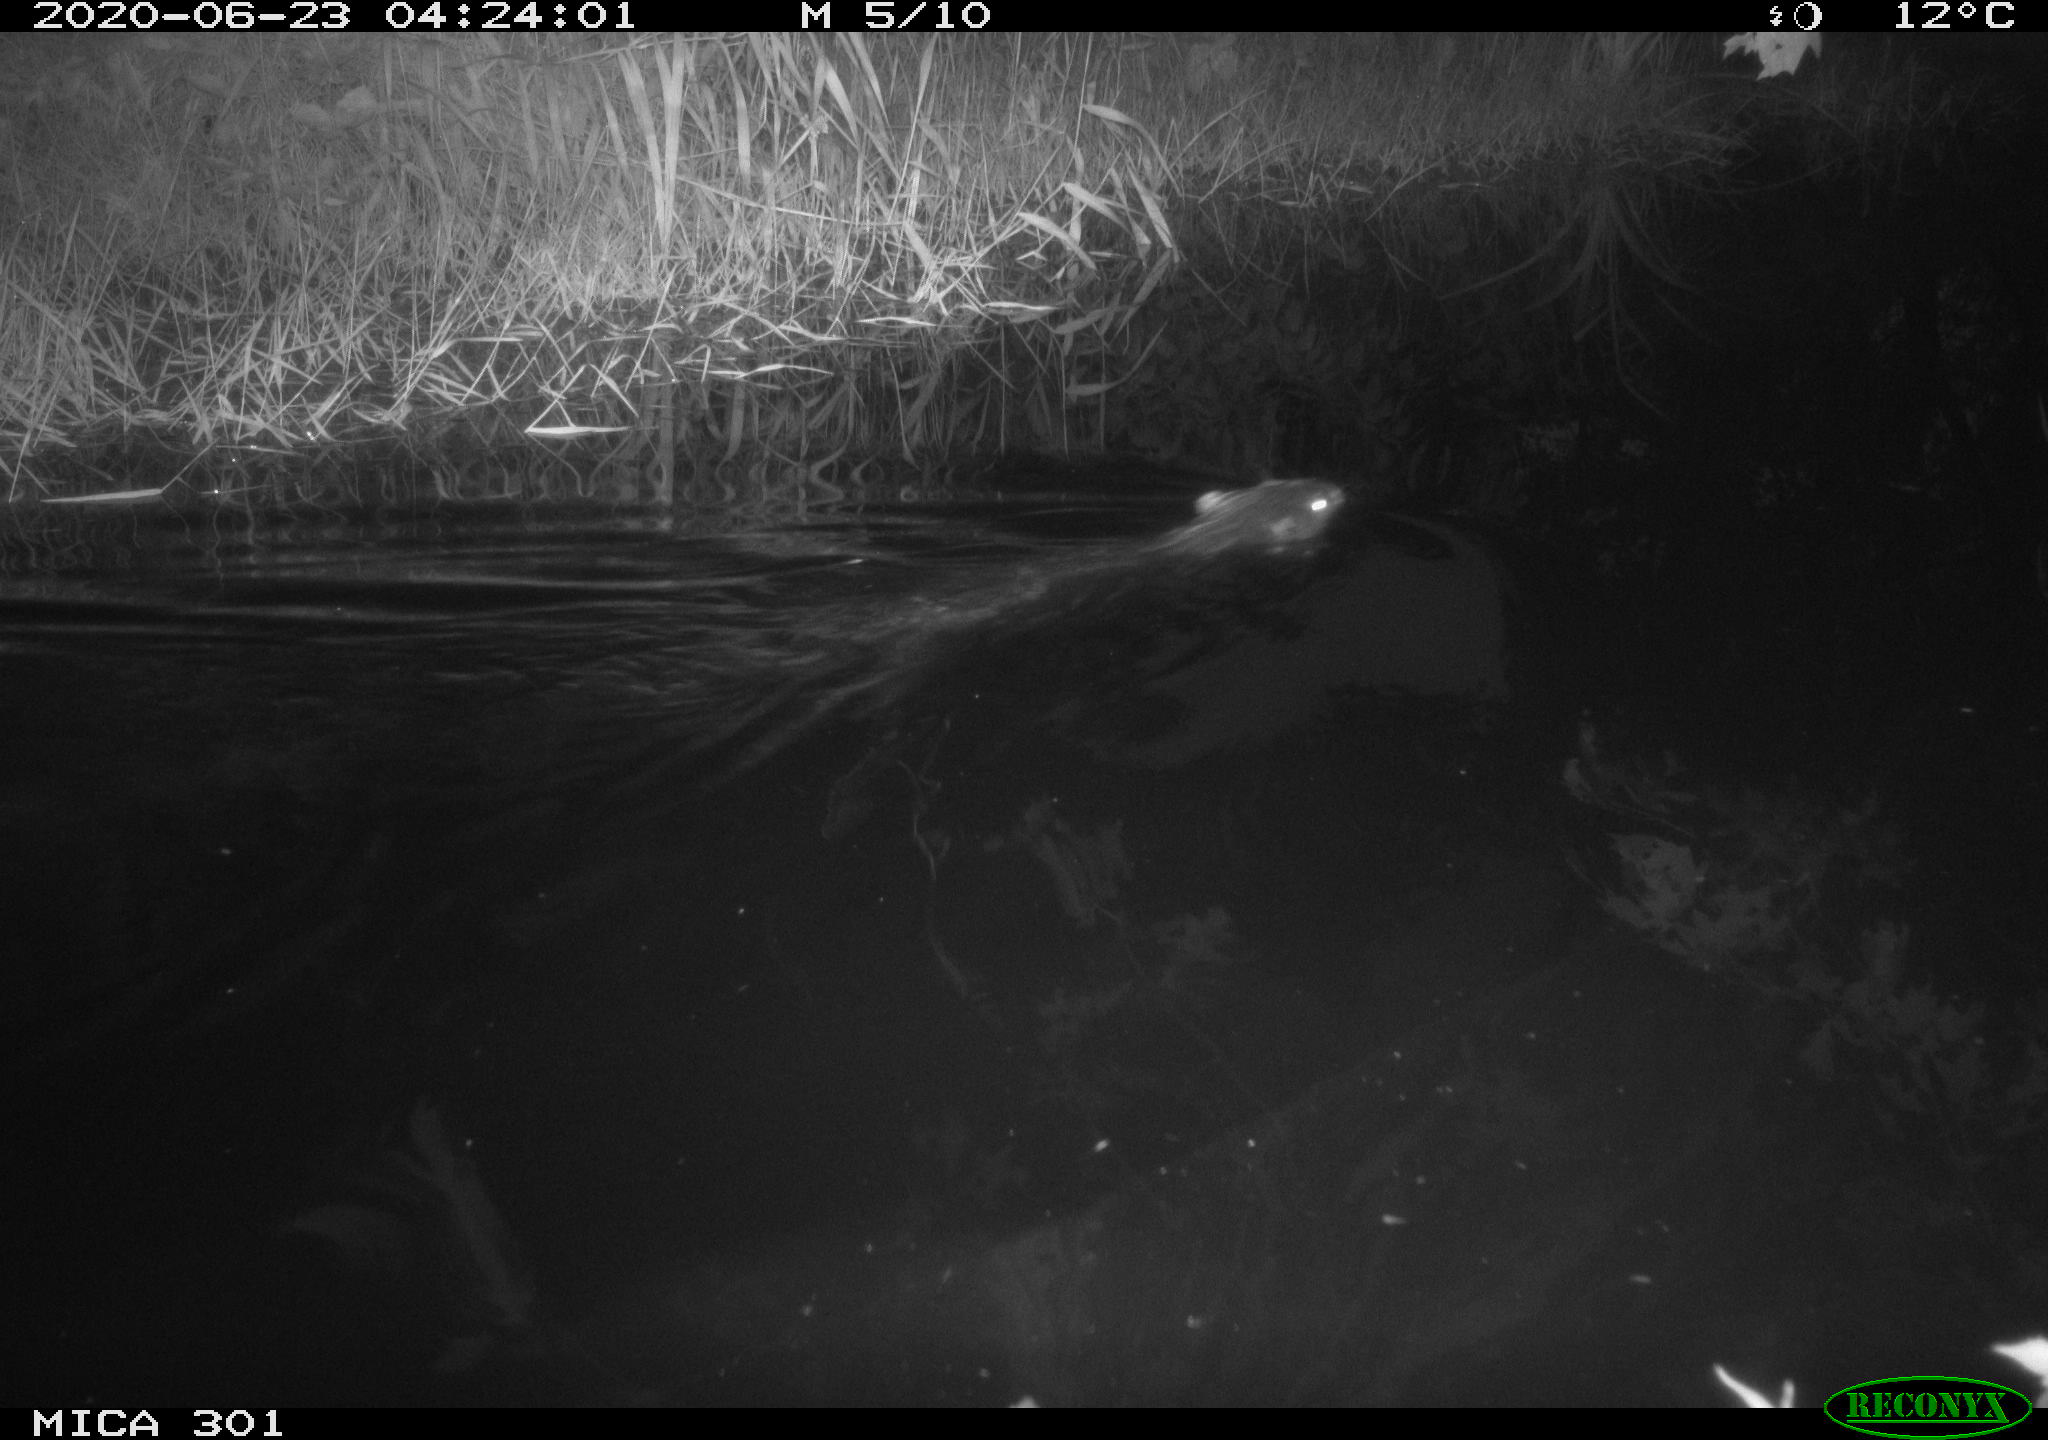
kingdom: Animalia
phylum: Chordata
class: Mammalia
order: Rodentia
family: Castoridae
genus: Castor
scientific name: Castor fiber
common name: Eurasian beaver
